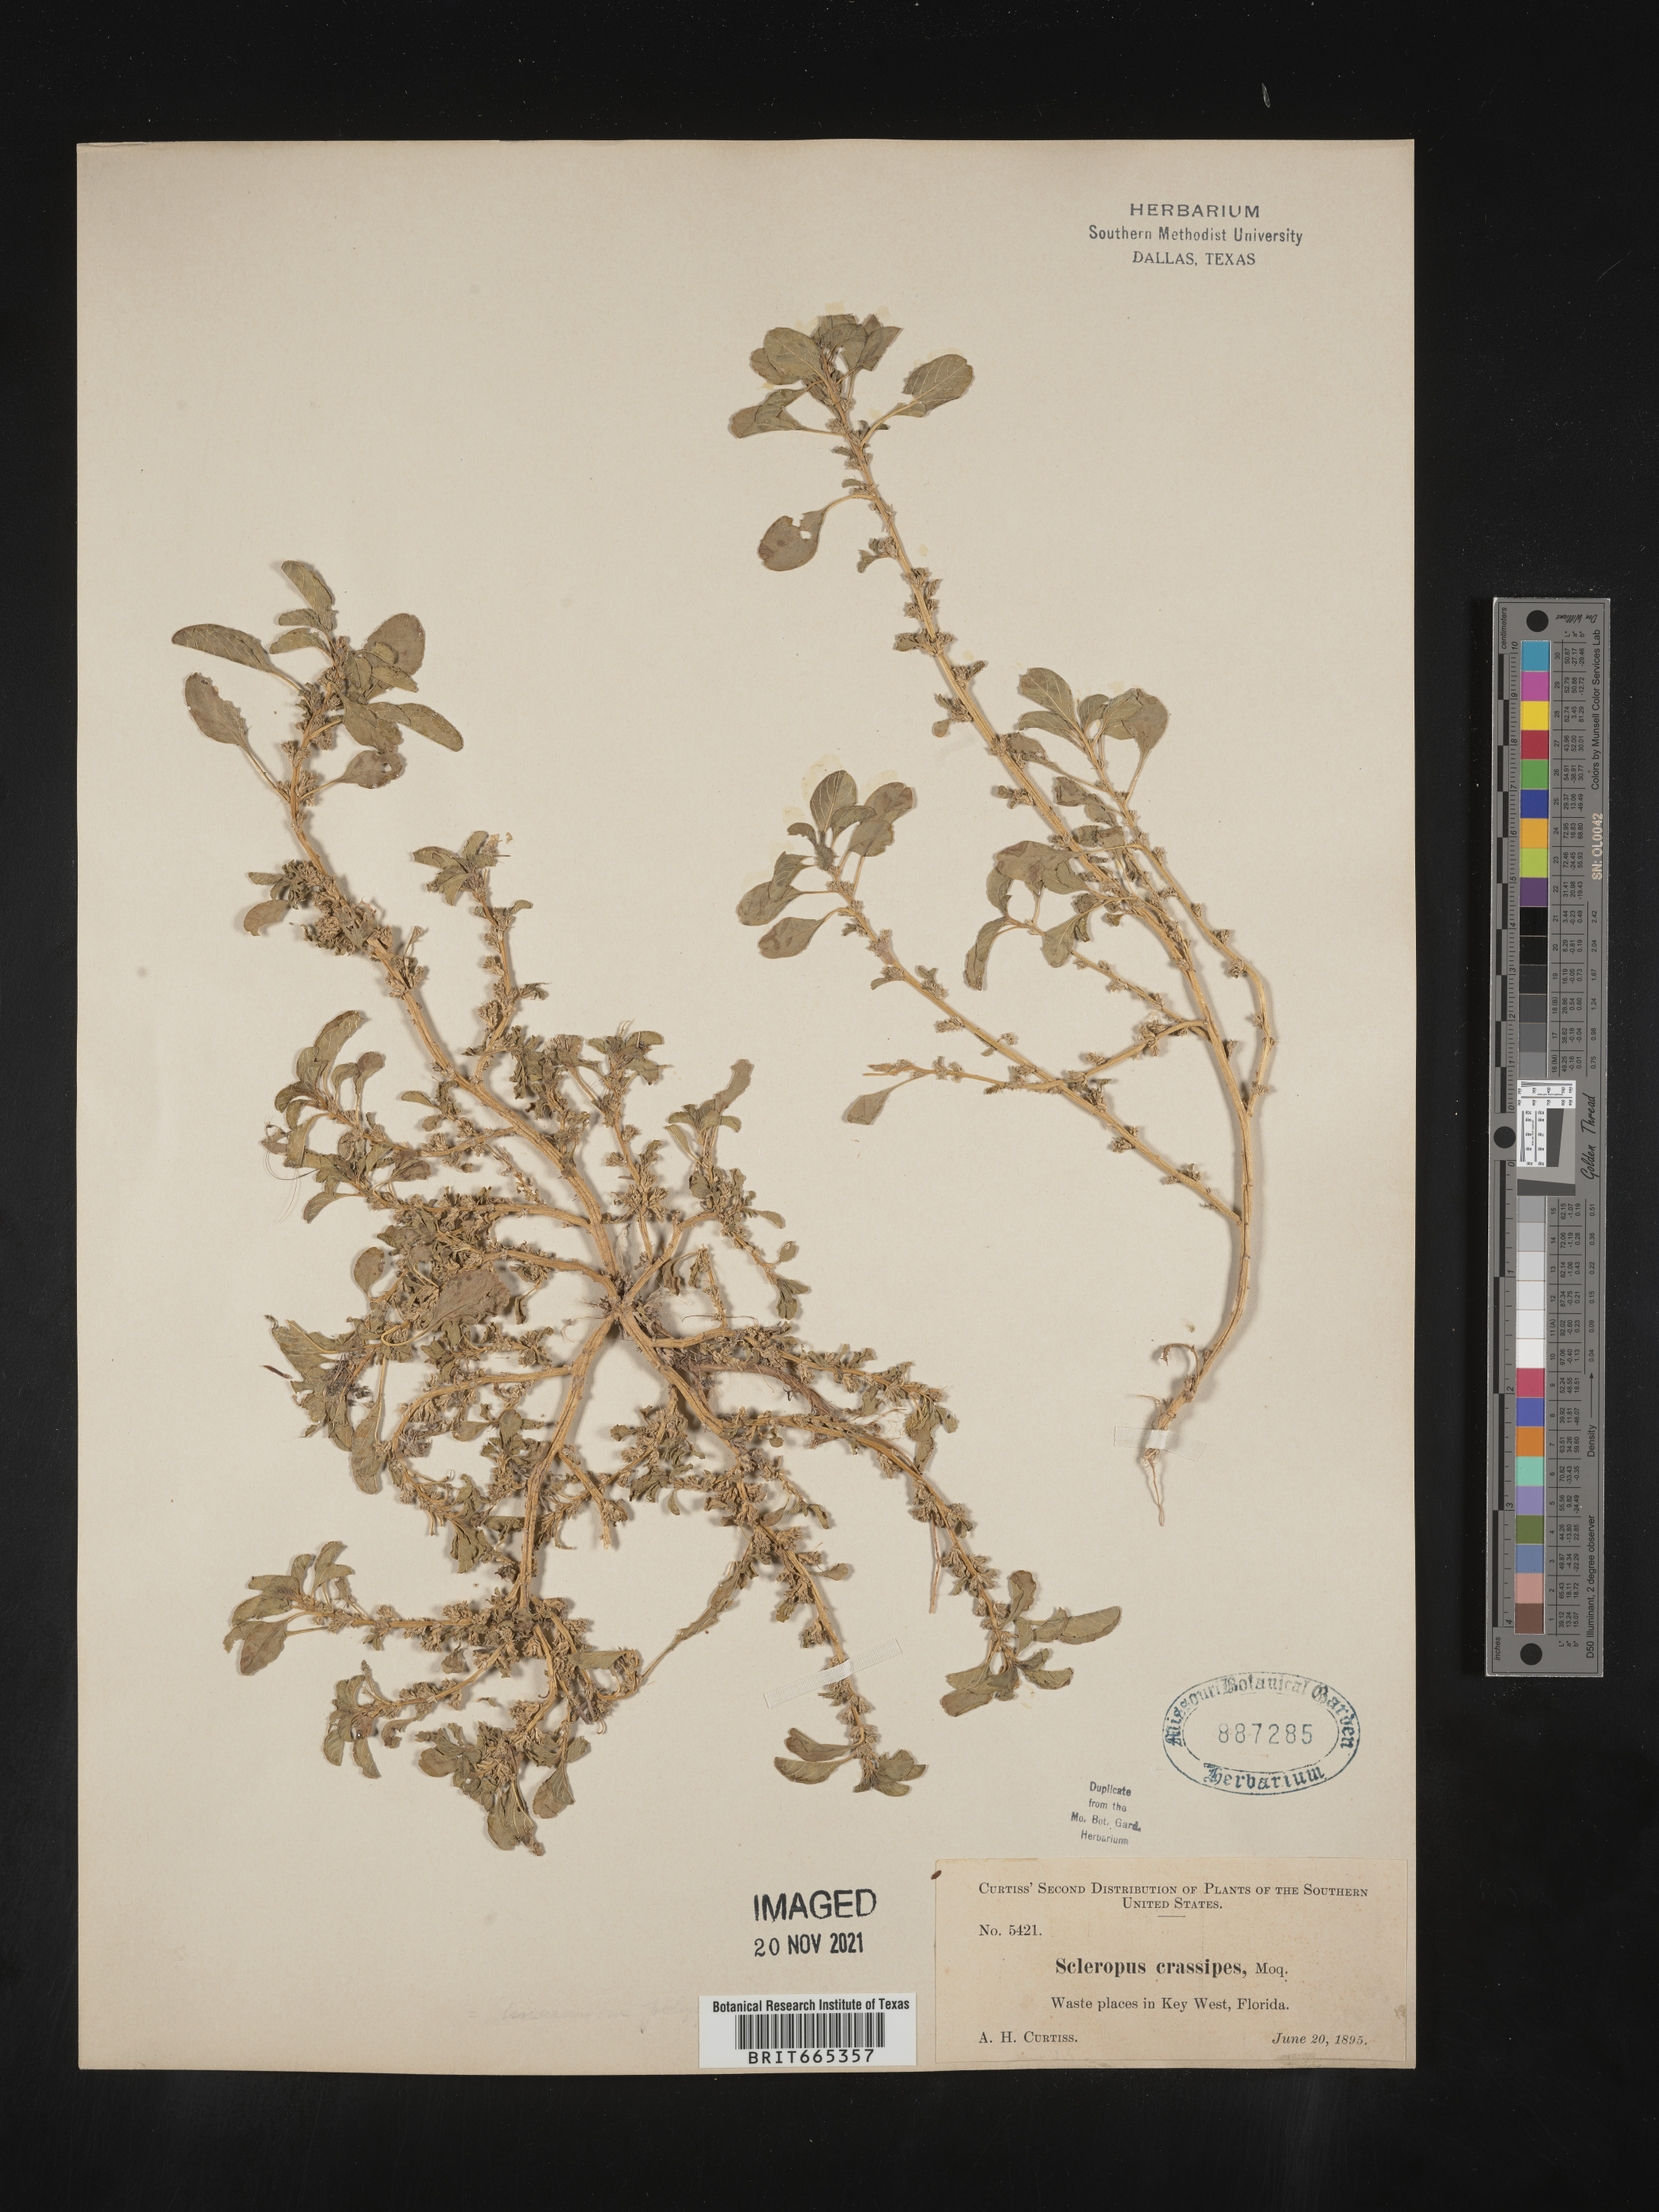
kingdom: Animalia
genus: Scleropus
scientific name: Scleropus
